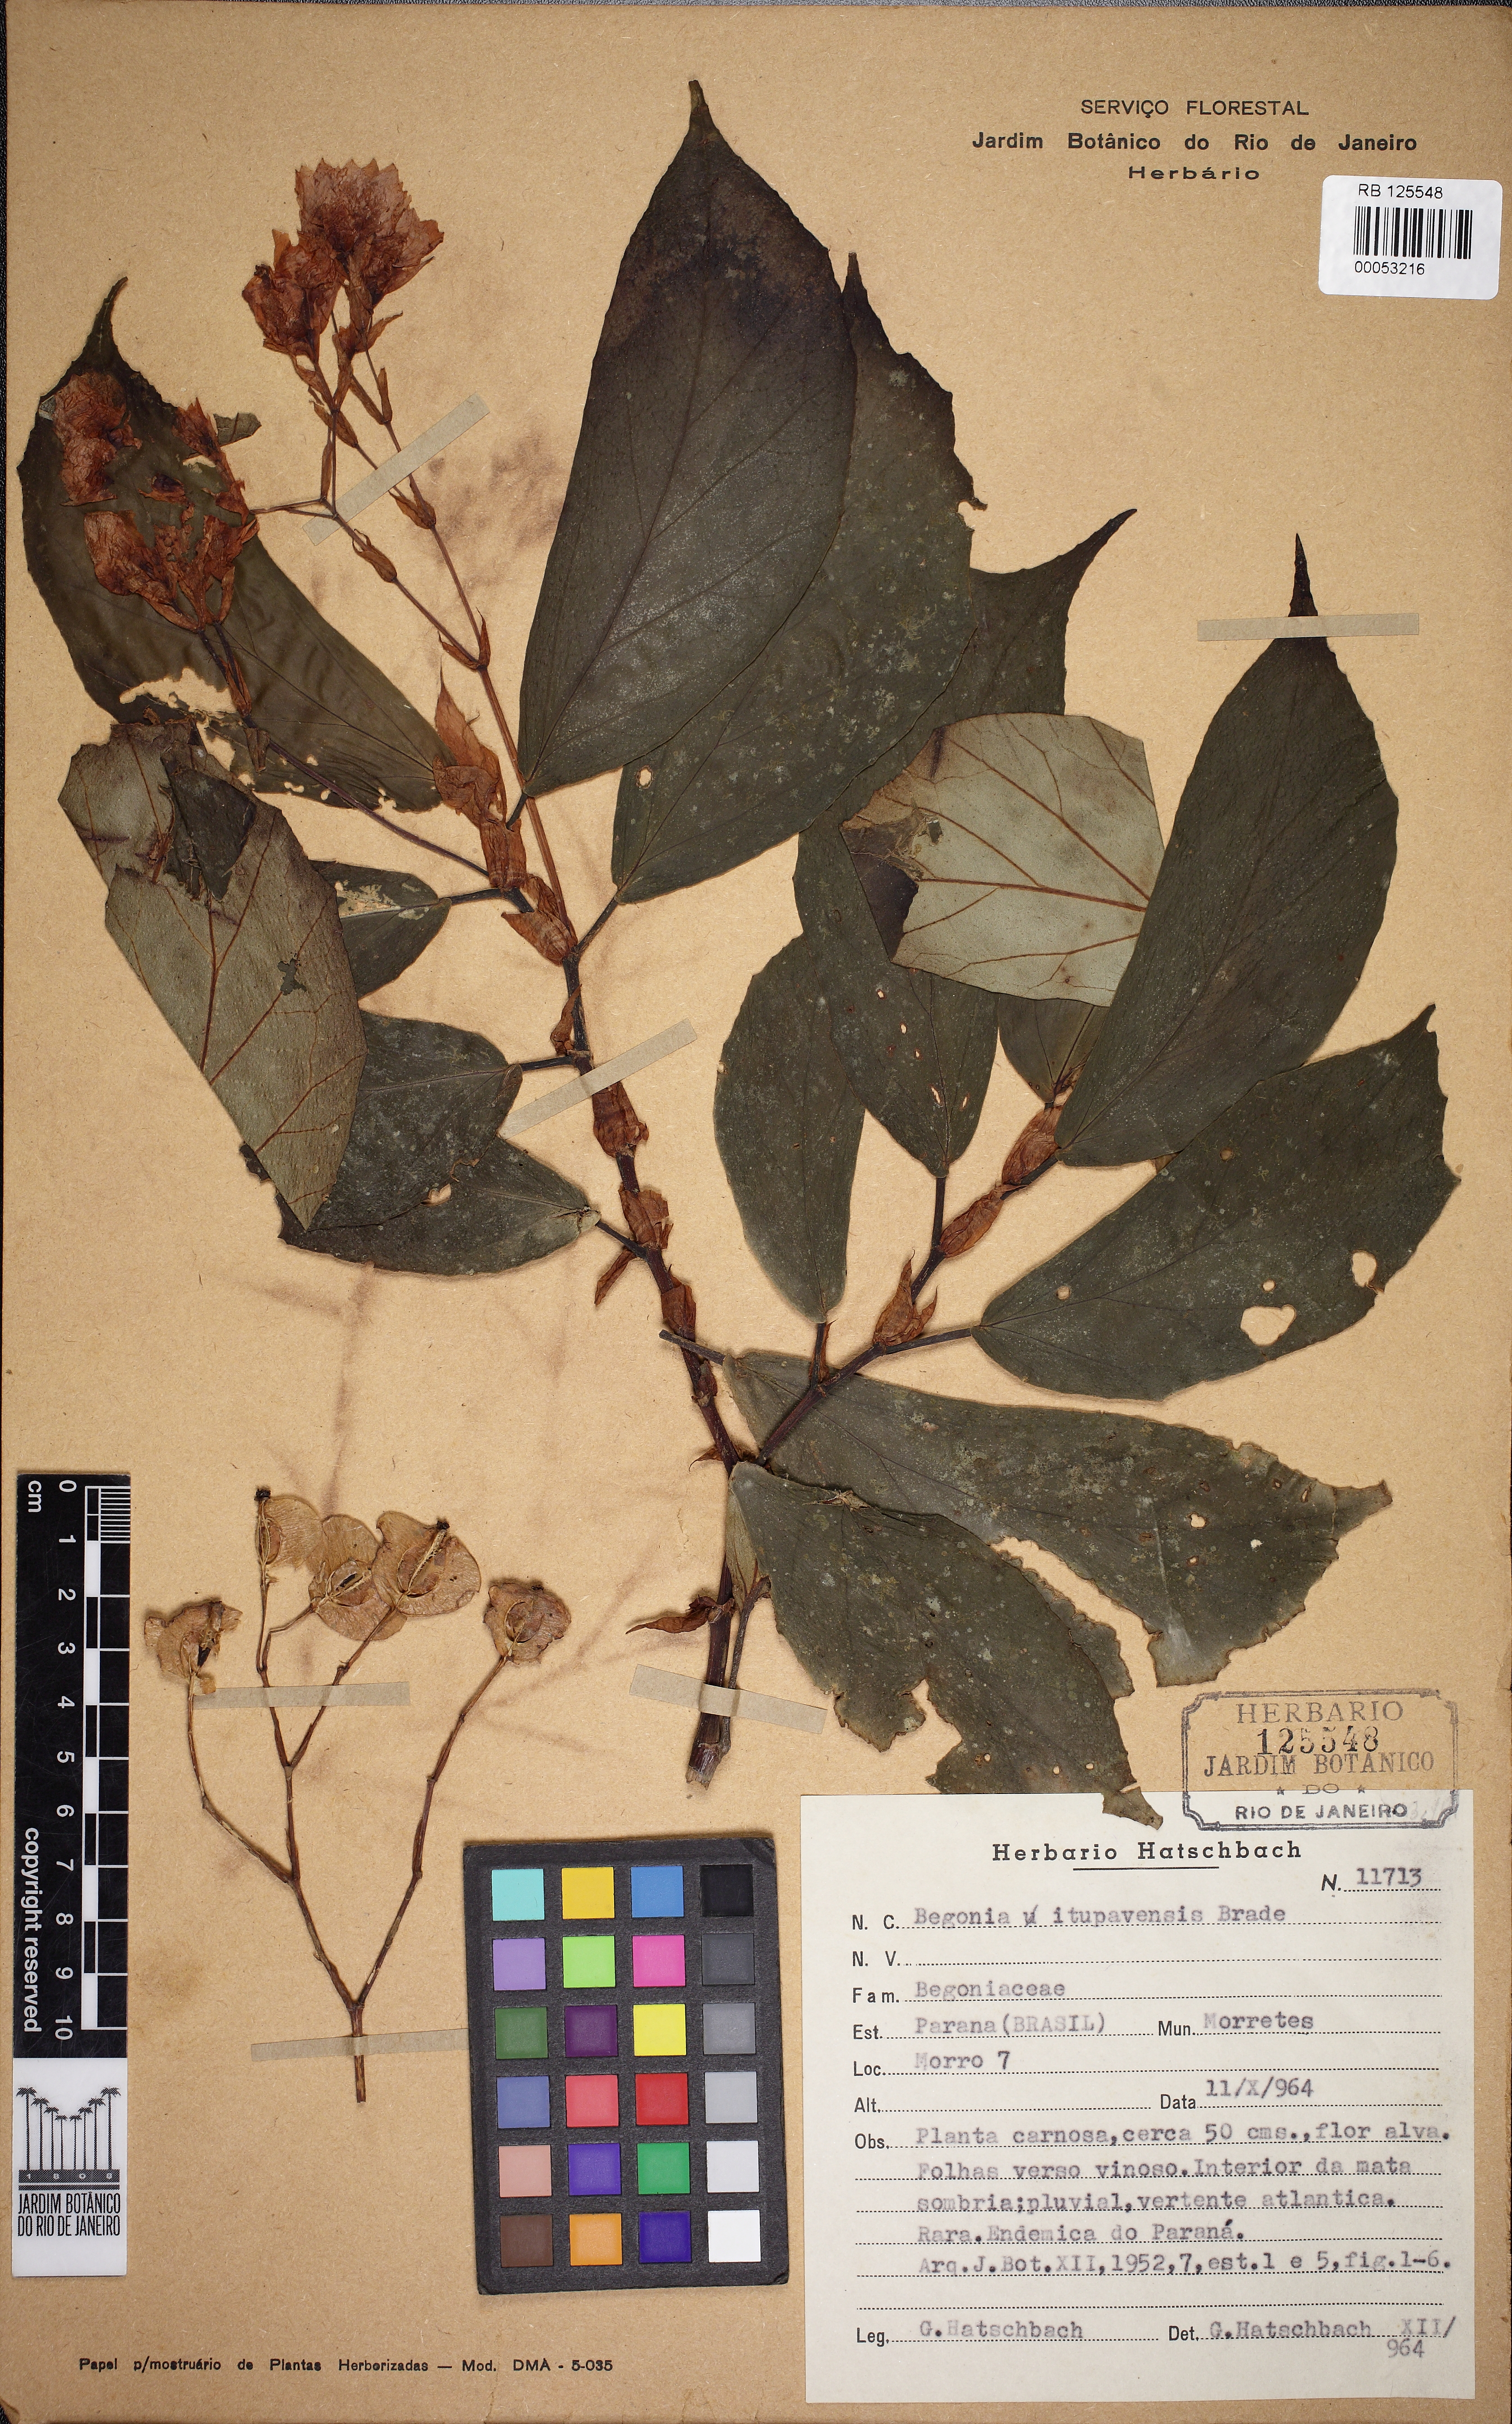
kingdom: Plantae
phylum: Tracheophyta
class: Magnoliopsida
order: Cucurbitales
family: Begoniaceae
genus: Begonia
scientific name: Begonia itupavensis
